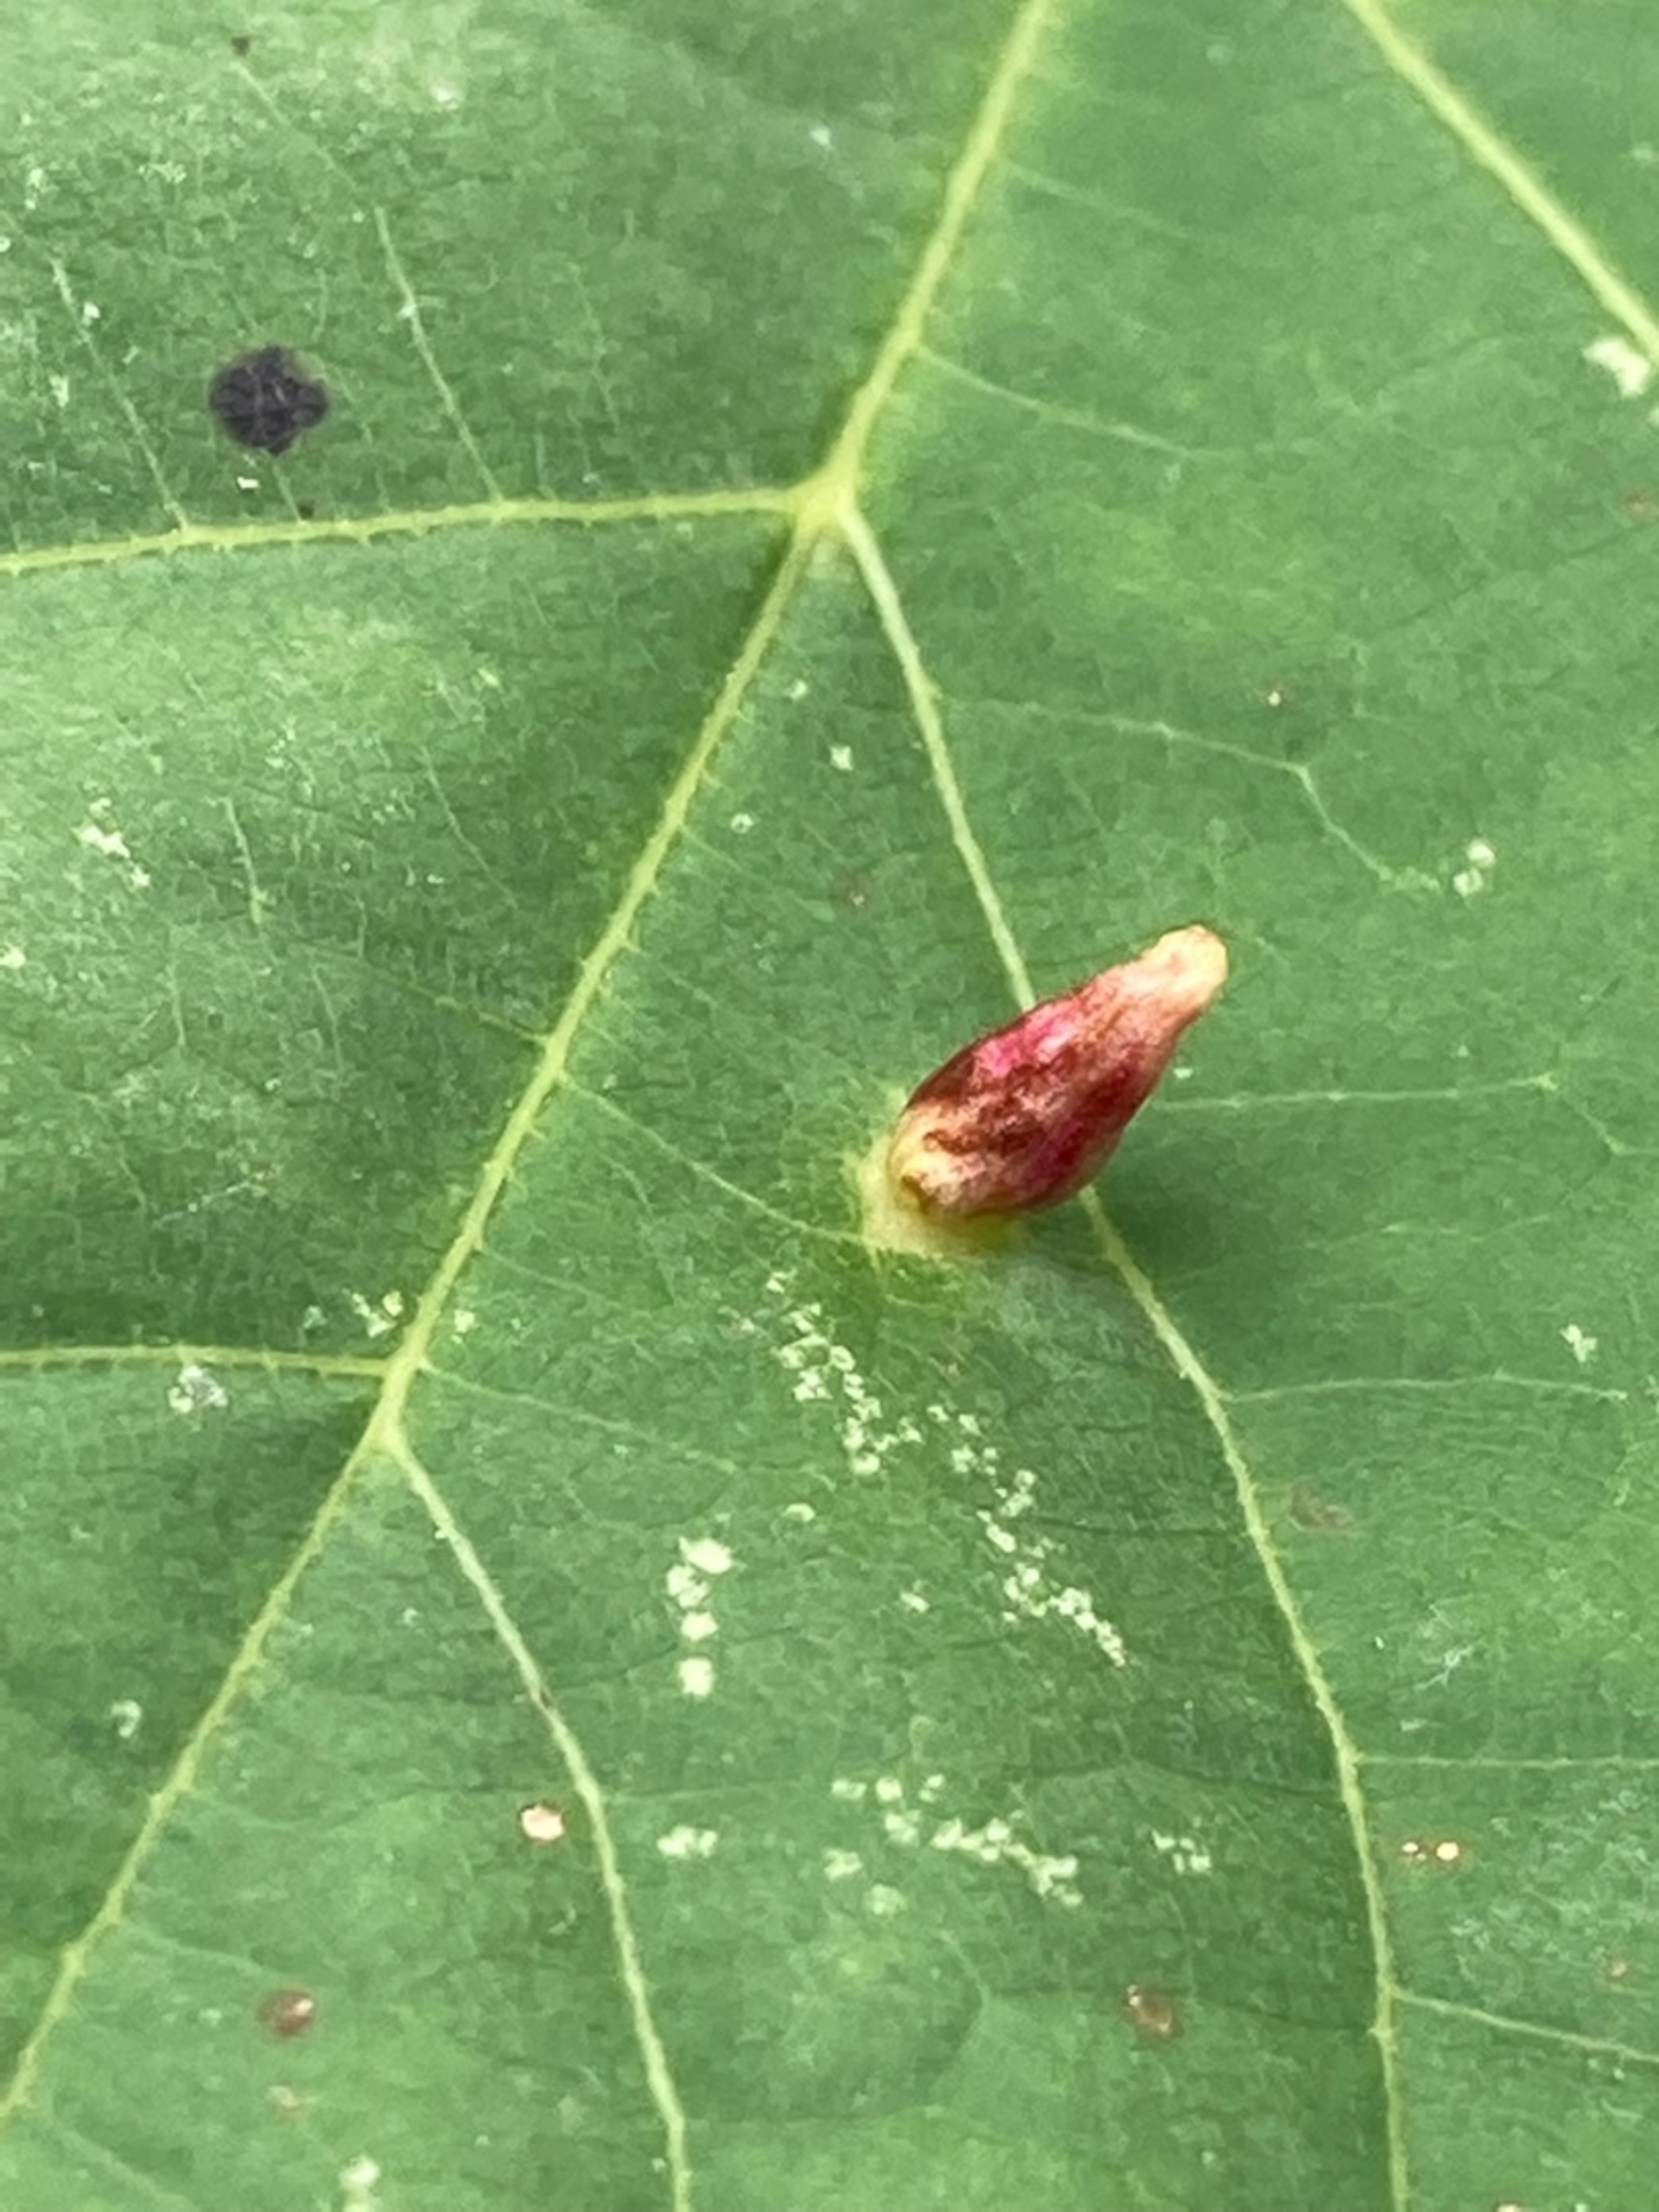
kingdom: Animalia
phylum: Arthropoda
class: Arachnida
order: Trombidiformes
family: Eriophyidae
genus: Eriophyes
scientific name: Eriophyes tiliae
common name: Lindepunggalmide
